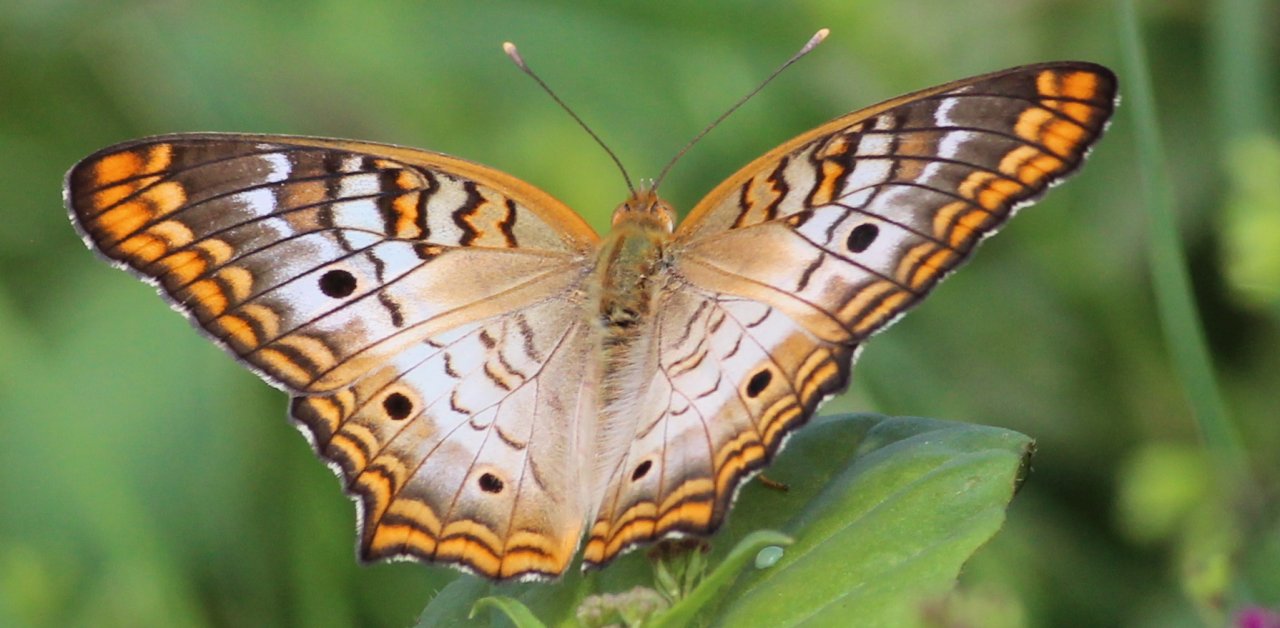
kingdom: Animalia
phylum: Arthropoda
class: Insecta
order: Lepidoptera
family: Nymphalidae
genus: Anartia
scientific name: Anartia jatrophae
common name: White Peacock
